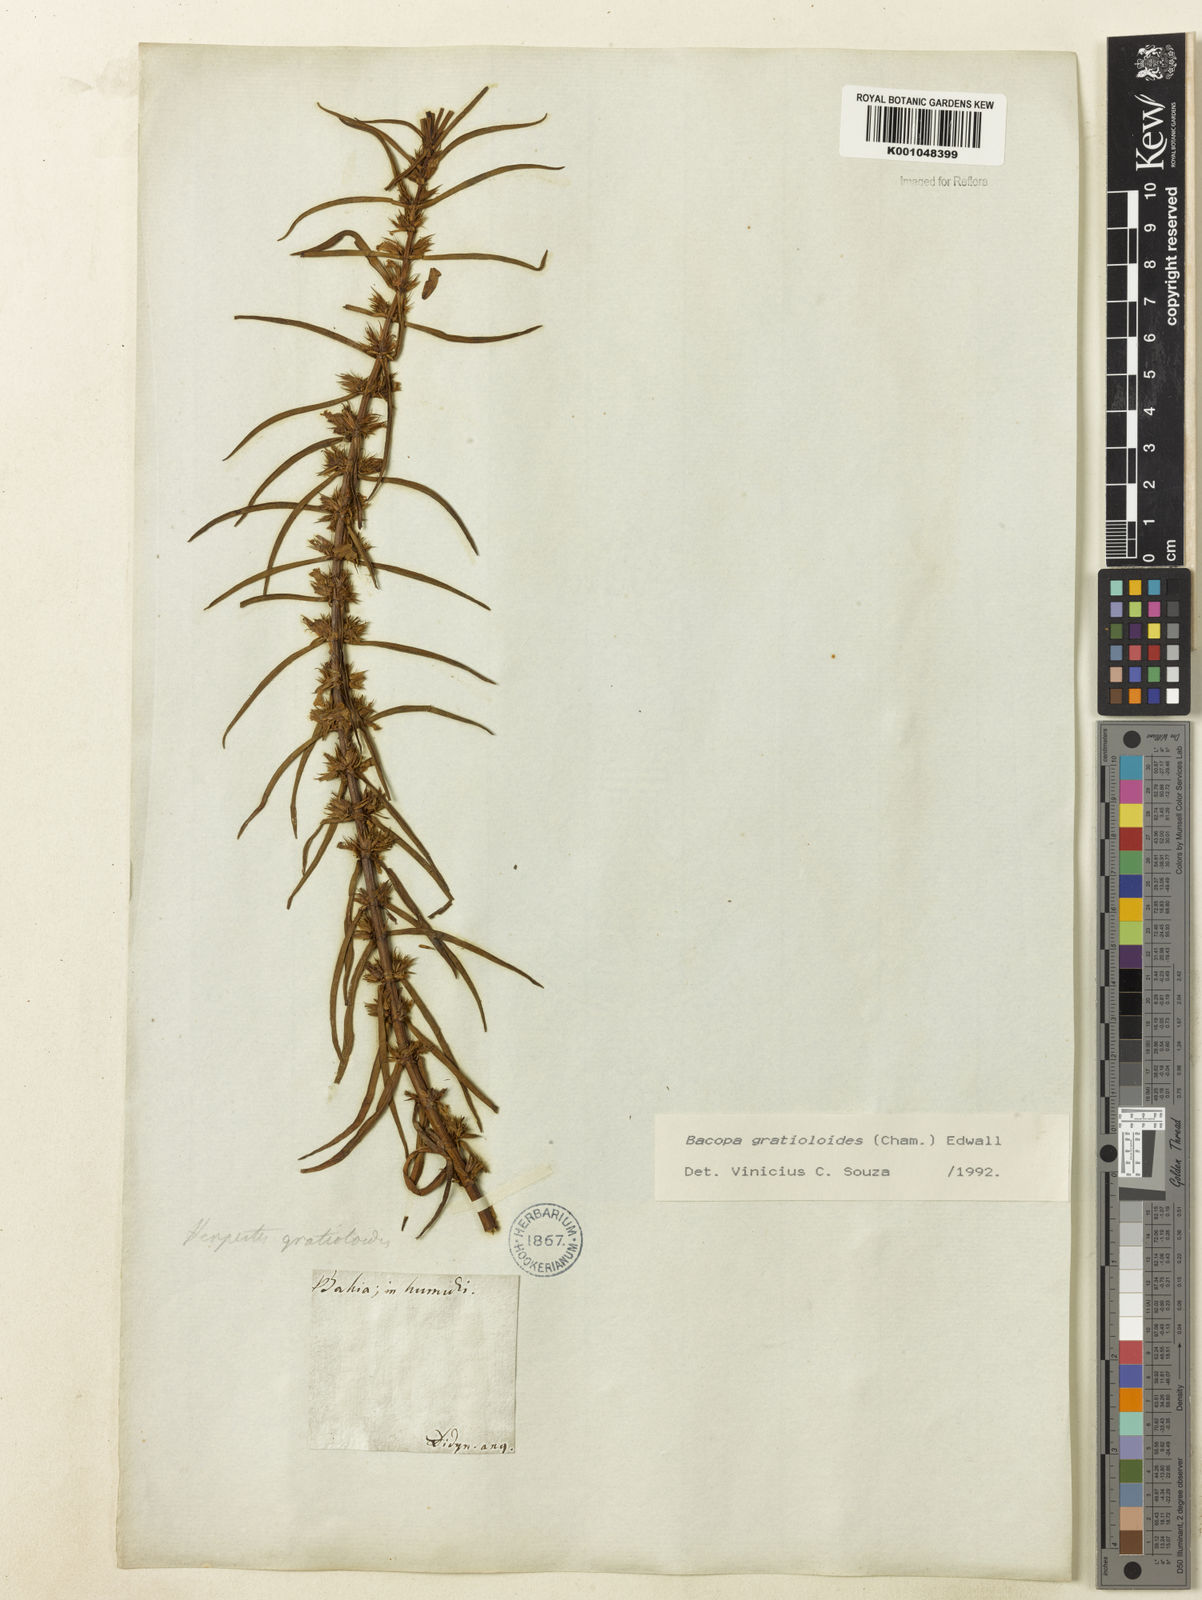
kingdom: Plantae
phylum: Tracheophyta
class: Magnoliopsida
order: Lamiales
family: Plantaginaceae
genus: Bacopa
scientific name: Bacopa
